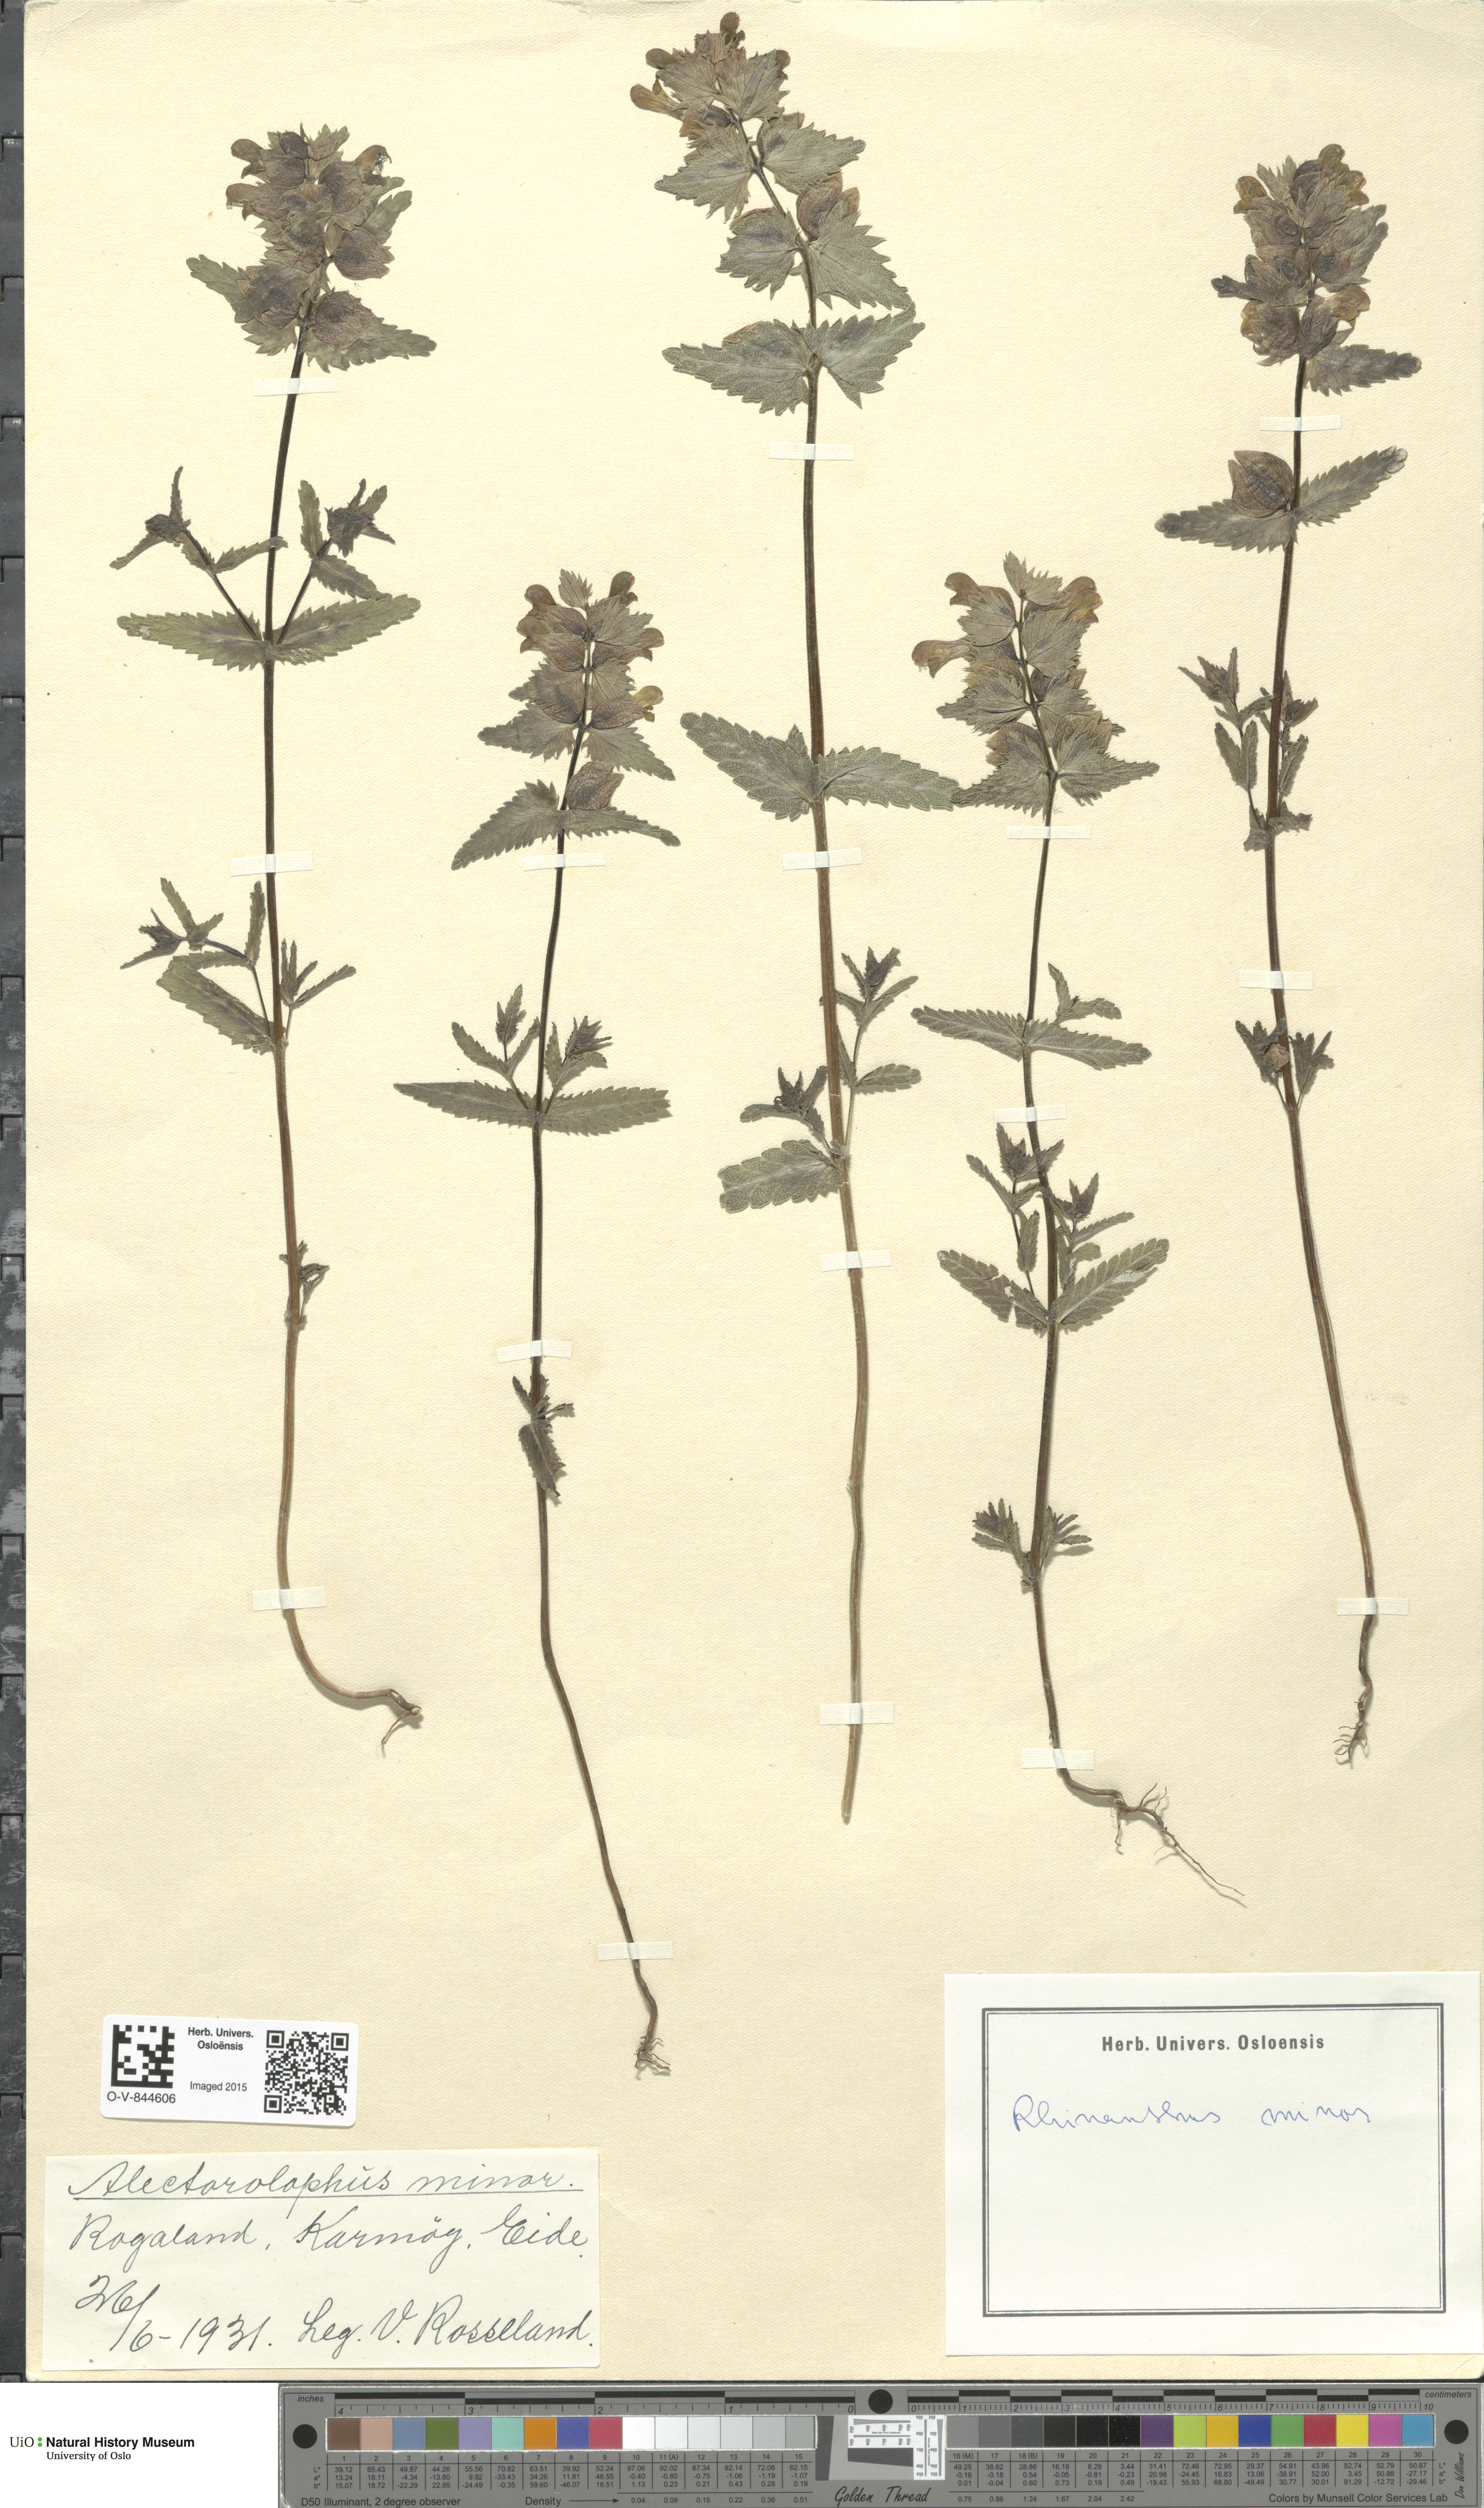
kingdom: Plantae
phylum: Tracheophyta
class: Magnoliopsida
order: Lamiales
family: Orobanchaceae
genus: Rhinanthus
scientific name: Rhinanthus minor
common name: Yellow-rattle
